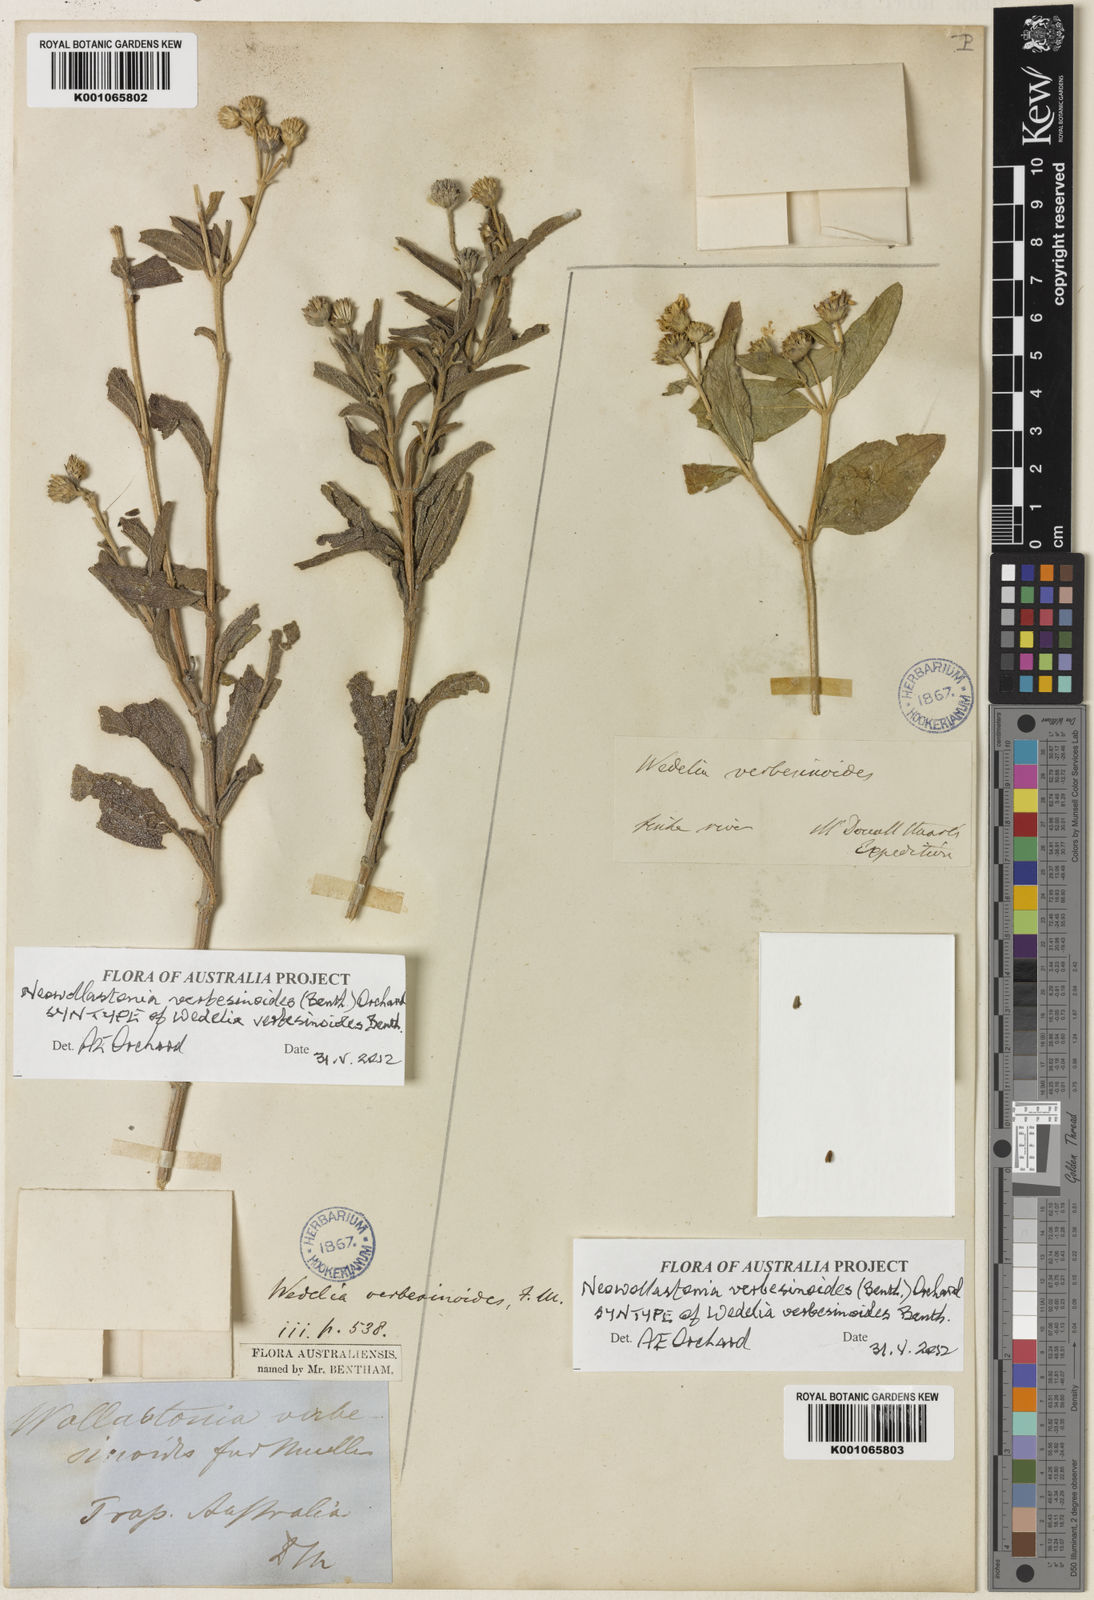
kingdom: Plantae
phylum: Tracheophyta
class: Magnoliopsida
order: Asterales
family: Asteraceae
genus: Apowollastonia
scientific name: Apowollastonia verbesinoides
